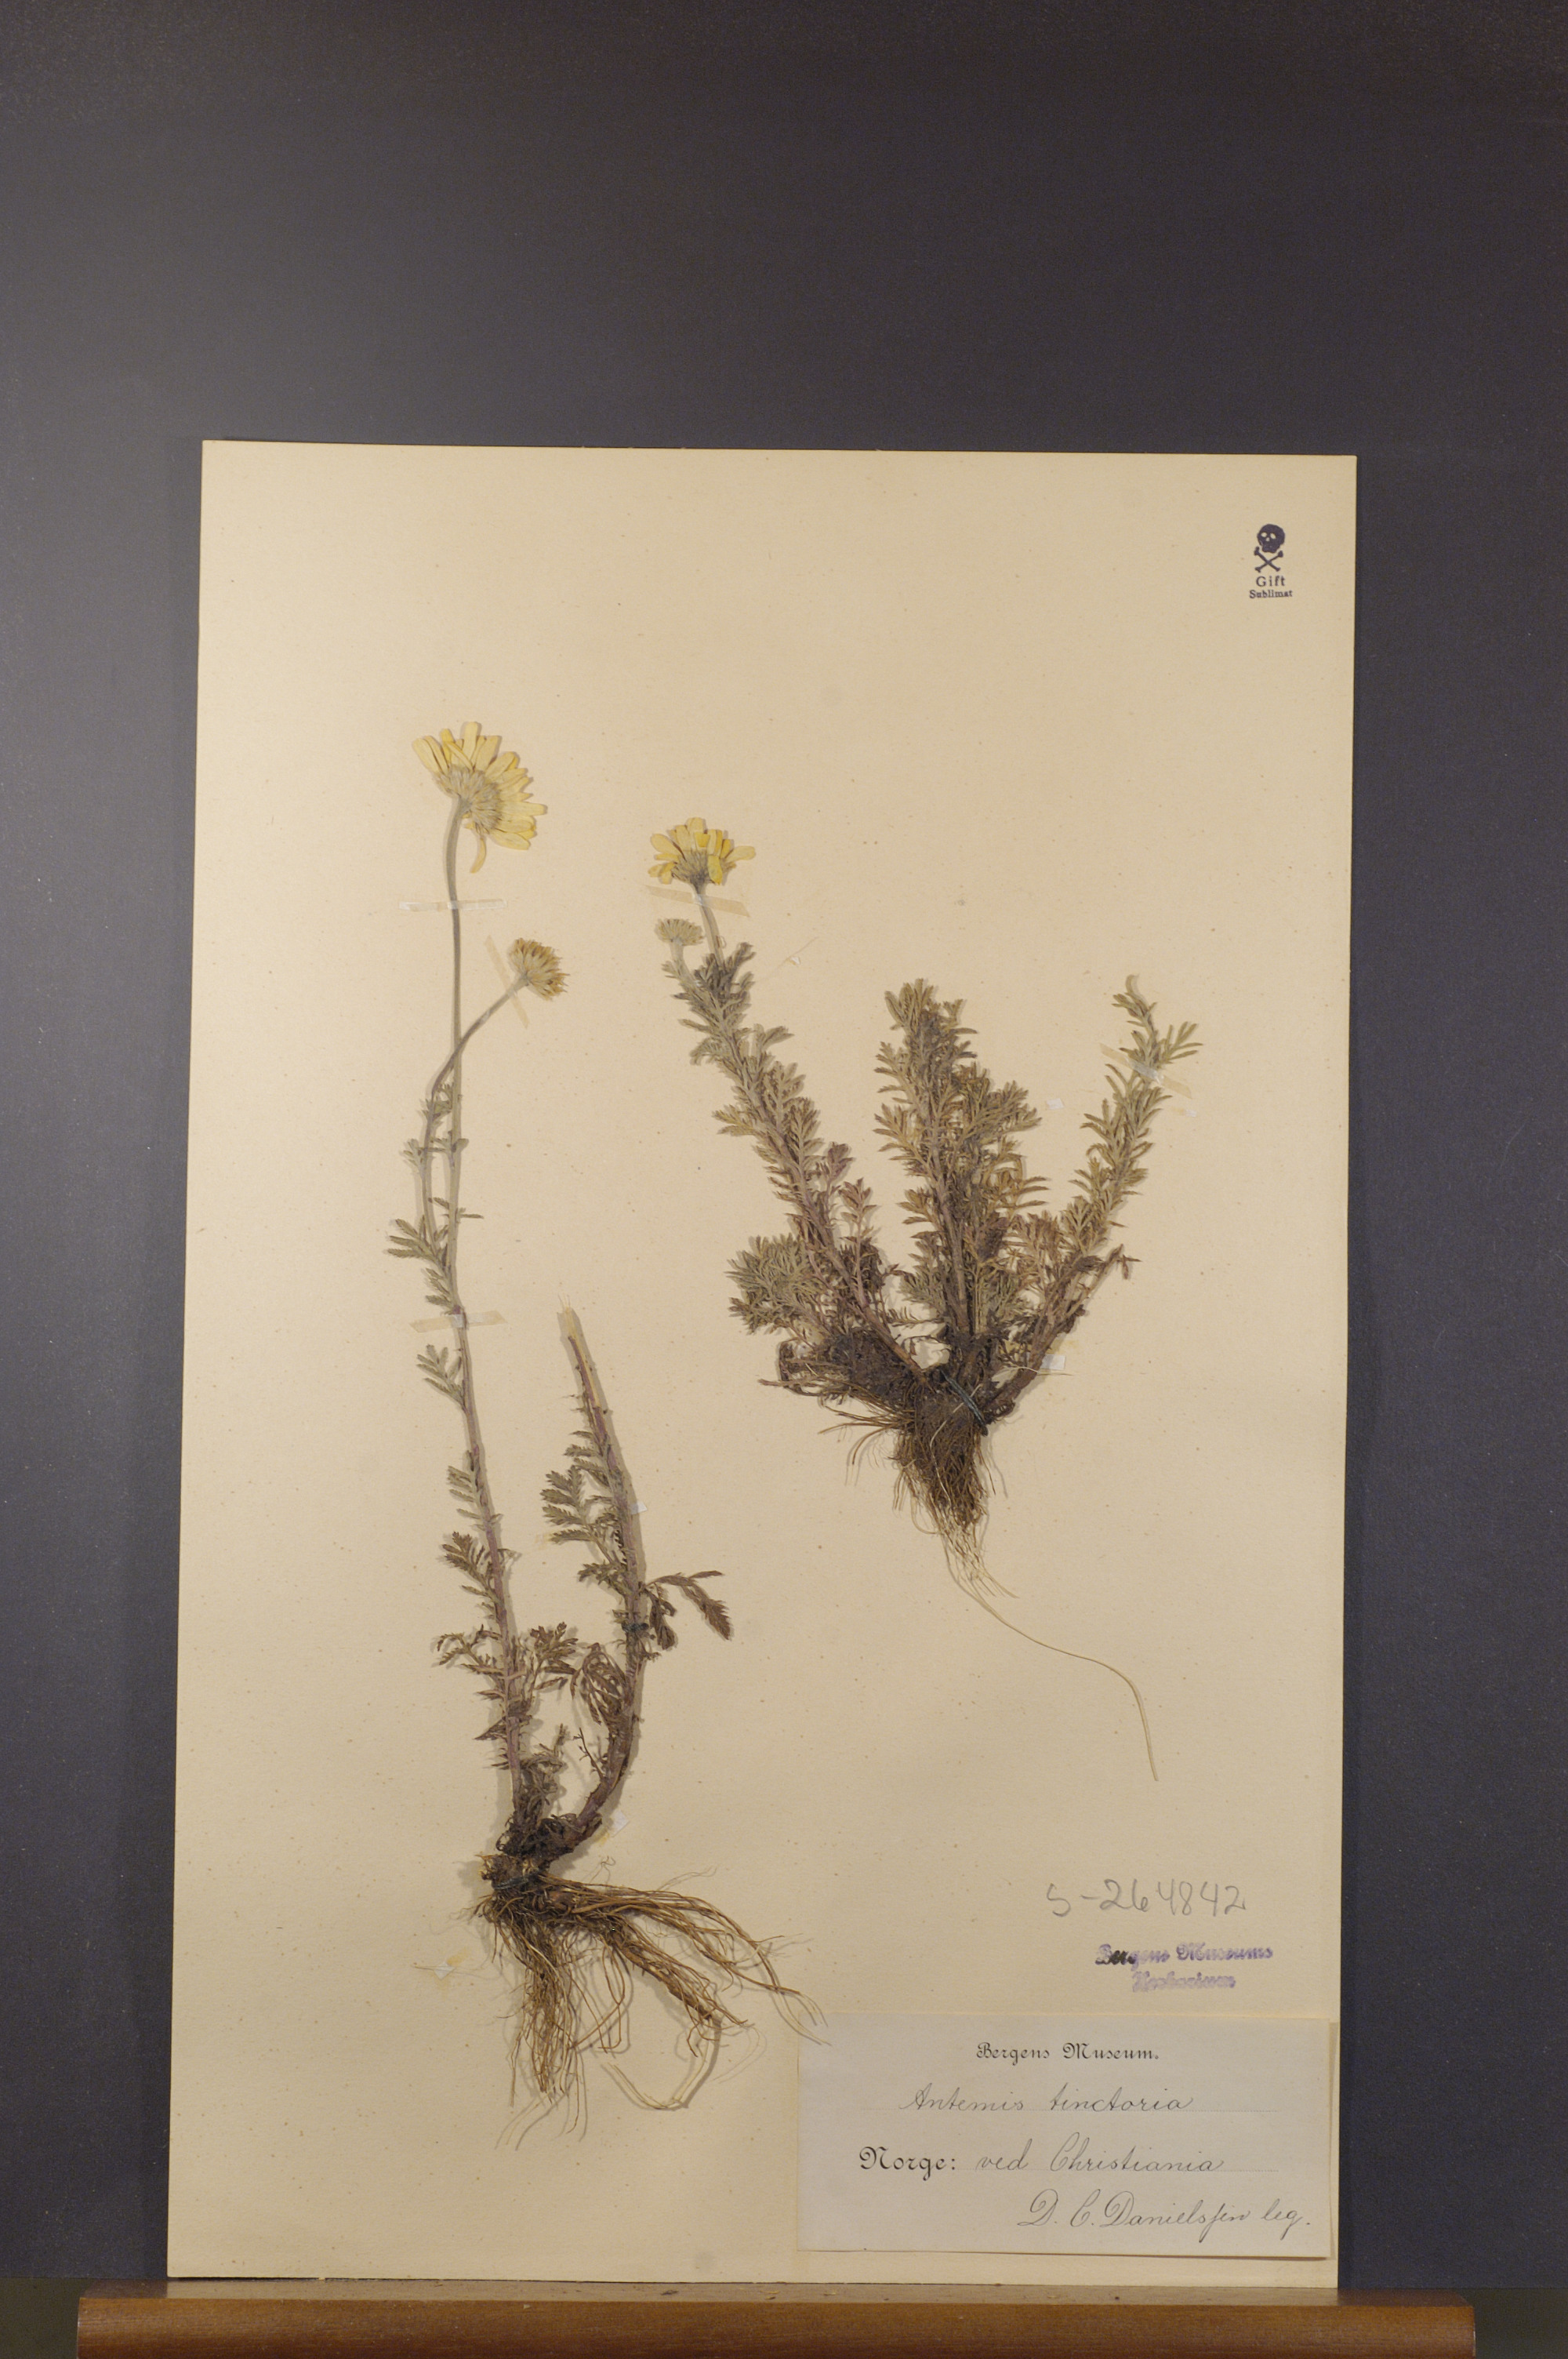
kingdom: Plantae
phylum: Tracheophyta
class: Magnoliopsida
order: Asterales
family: Asteraceae
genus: Cota
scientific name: Cota tinctoria
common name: Golden chamomile
